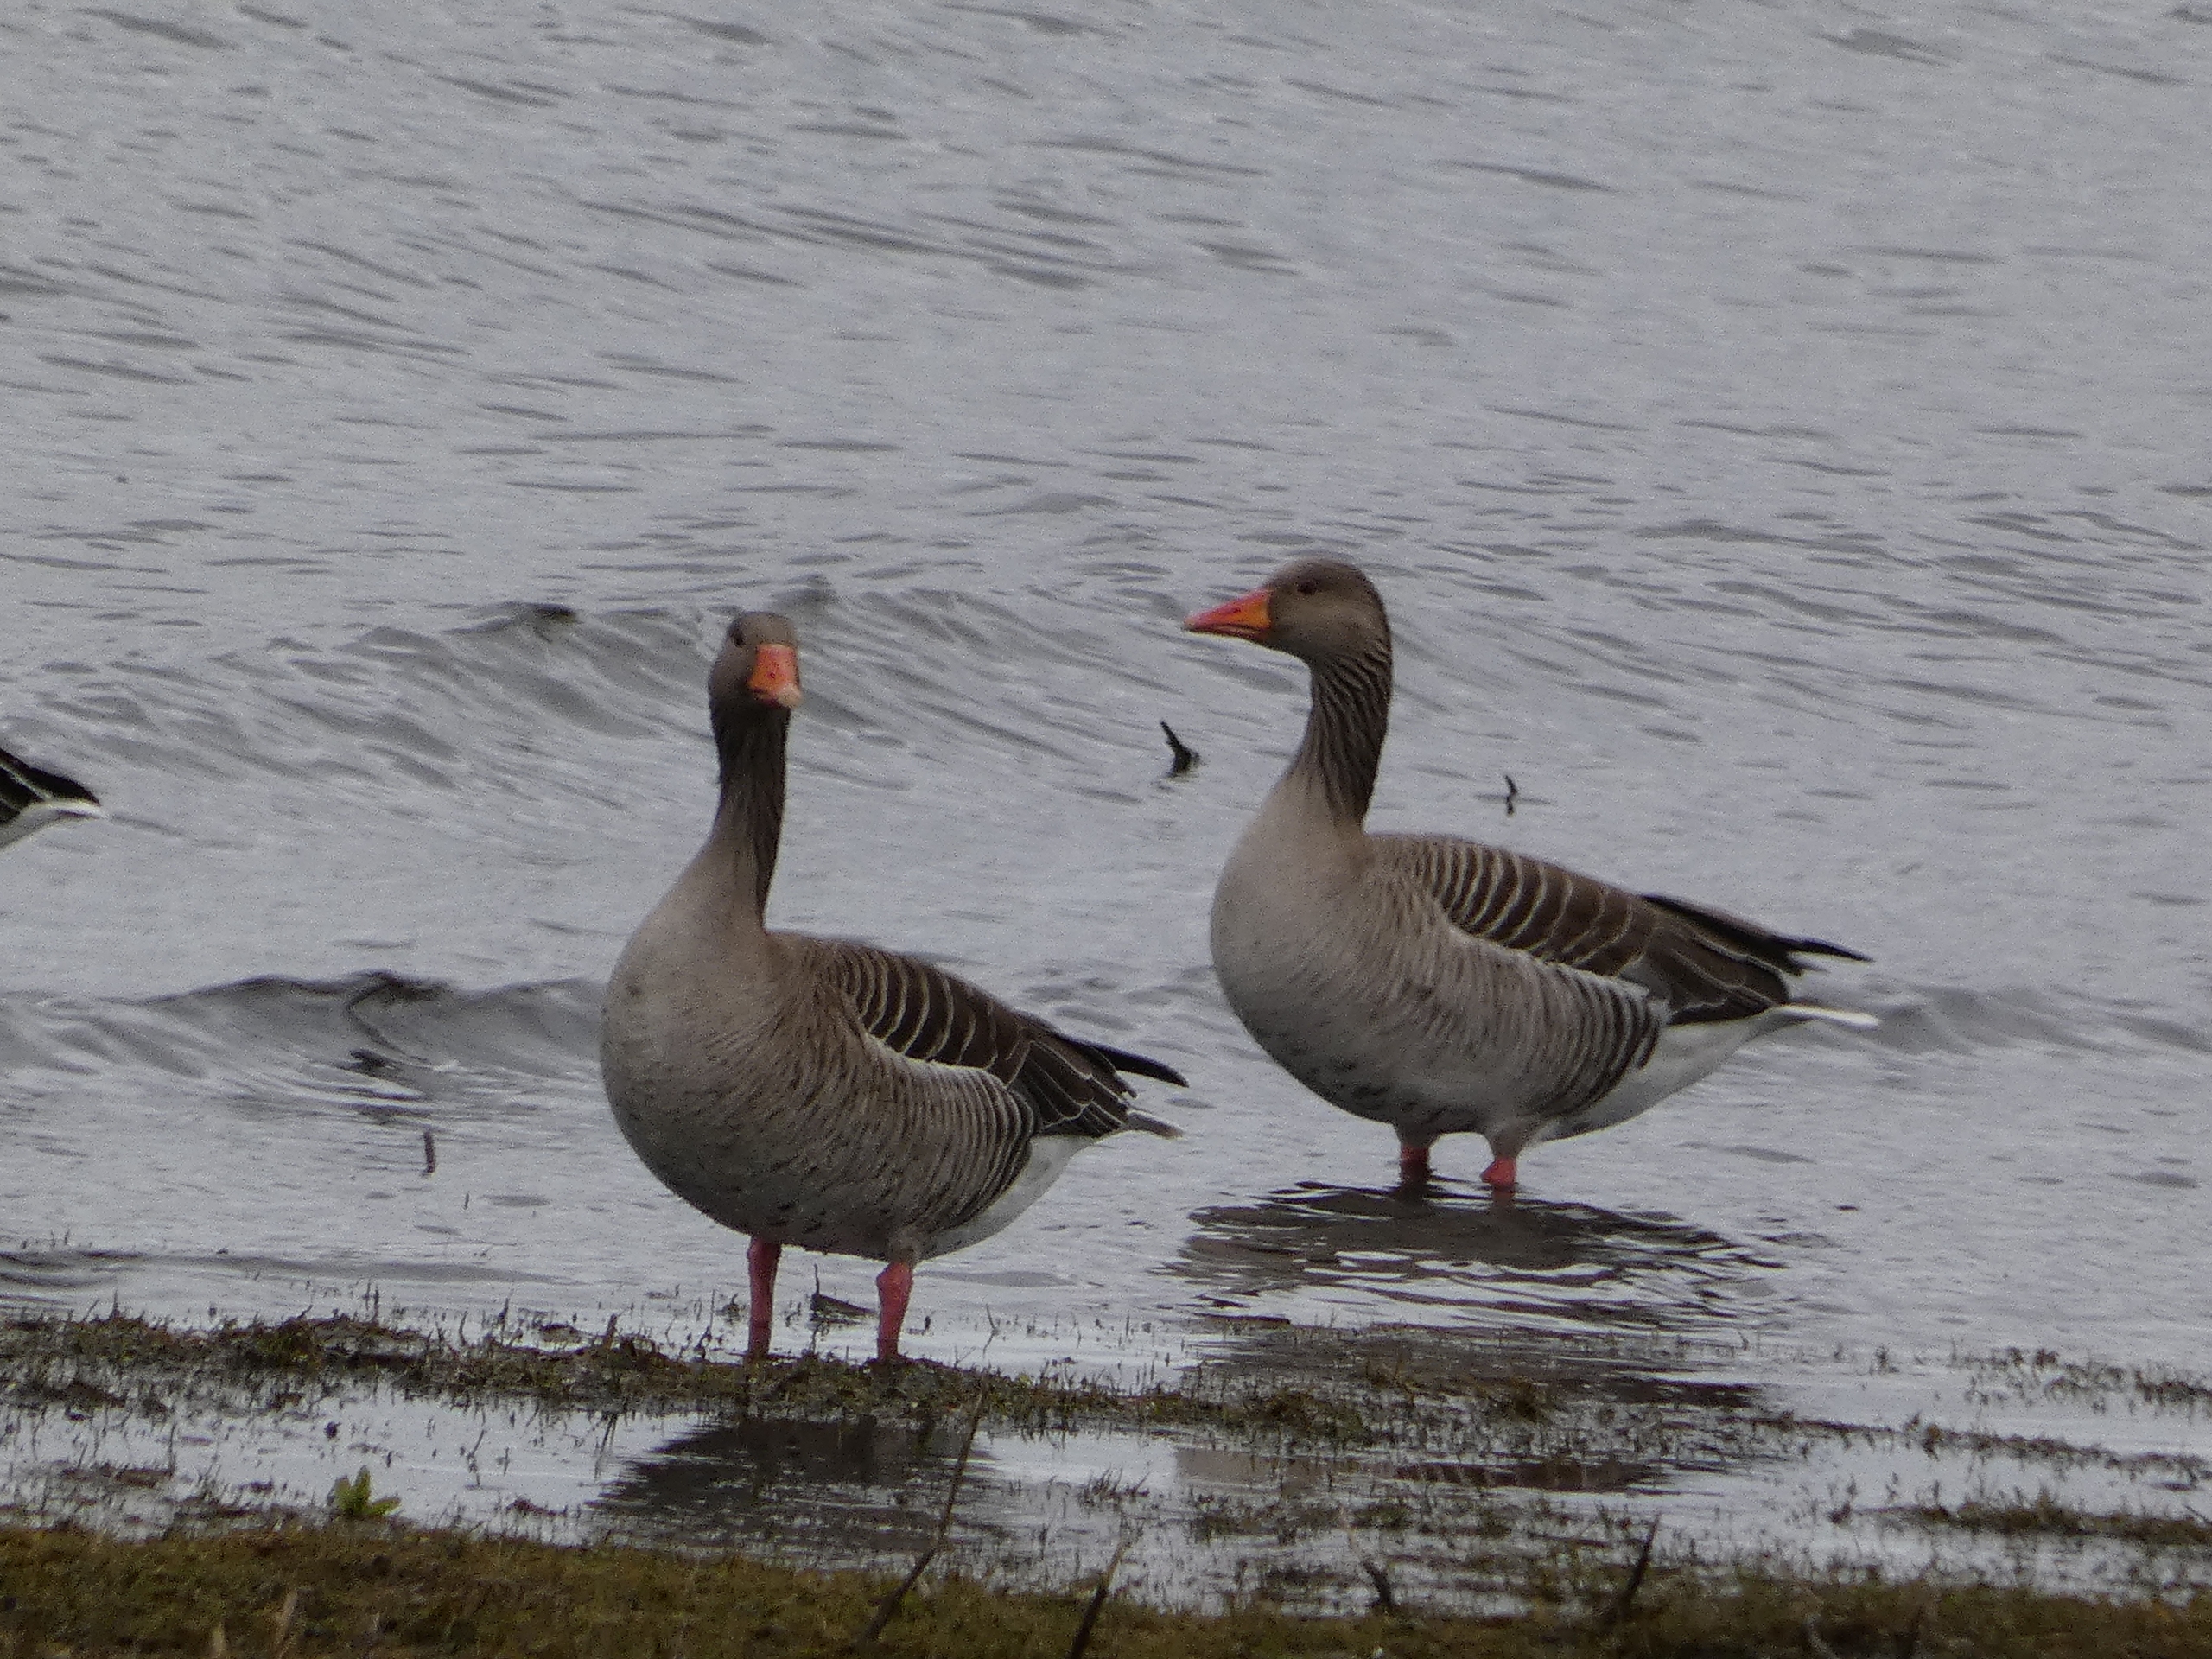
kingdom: Animalia
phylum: Chordata
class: Aves
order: Anseriformes
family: Anatidae
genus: Anser
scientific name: Anser anser
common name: Grågås
